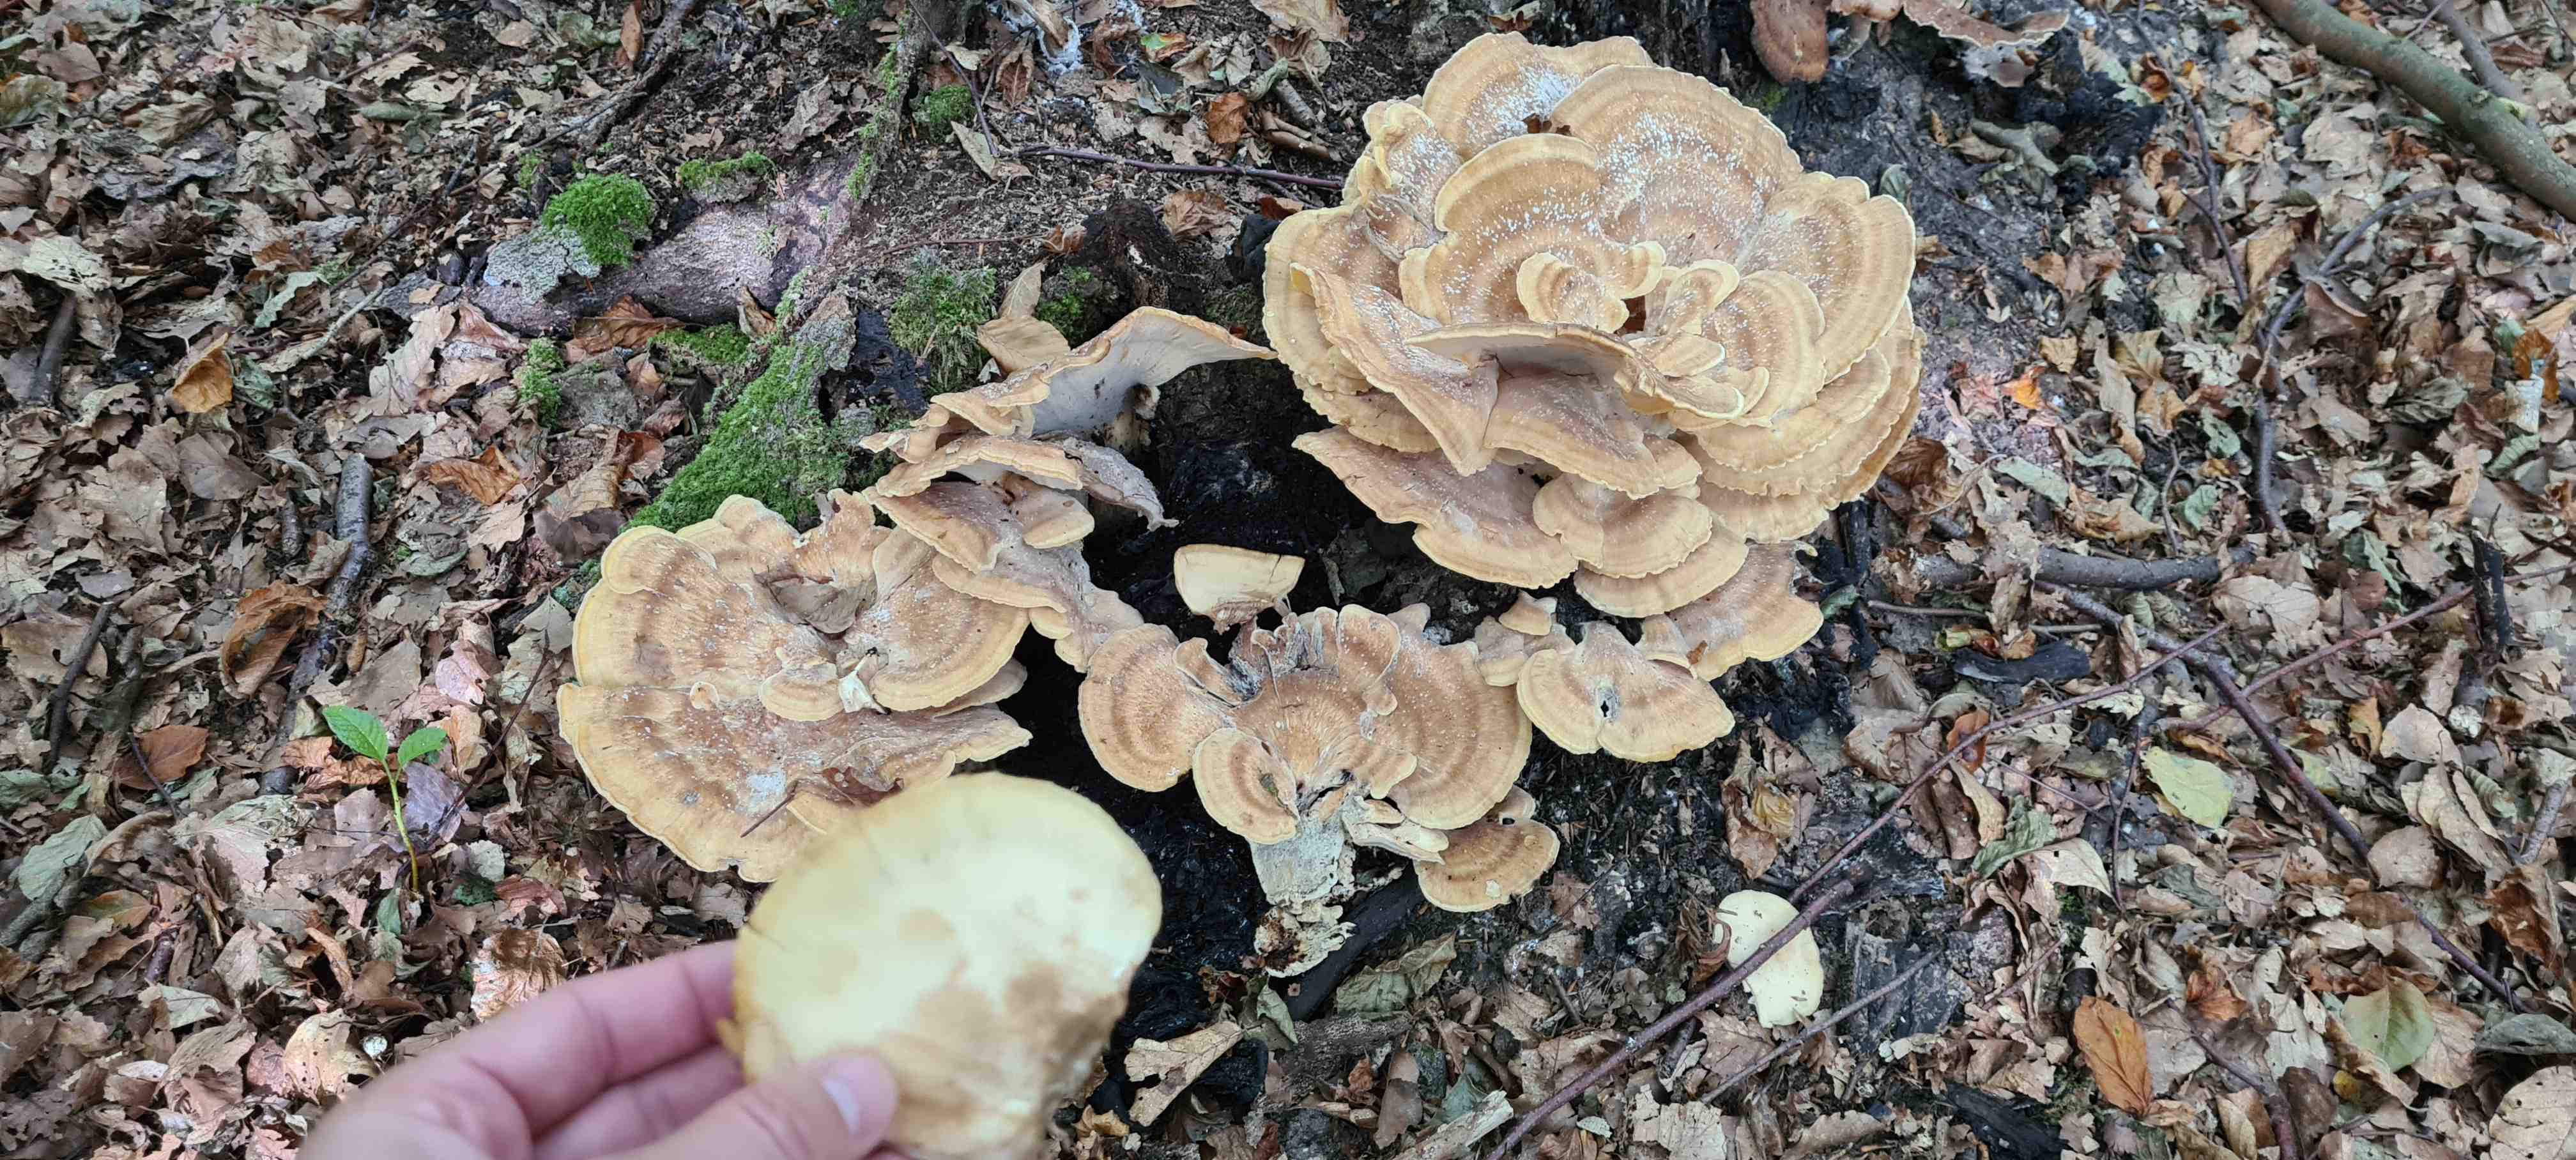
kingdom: Fungi
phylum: Basidiomycota
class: Agaricomycetes
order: Polyporales
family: Meripilaceae
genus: Meripilus
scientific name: Meripilus giganteus
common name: kæmpeporesvamp
